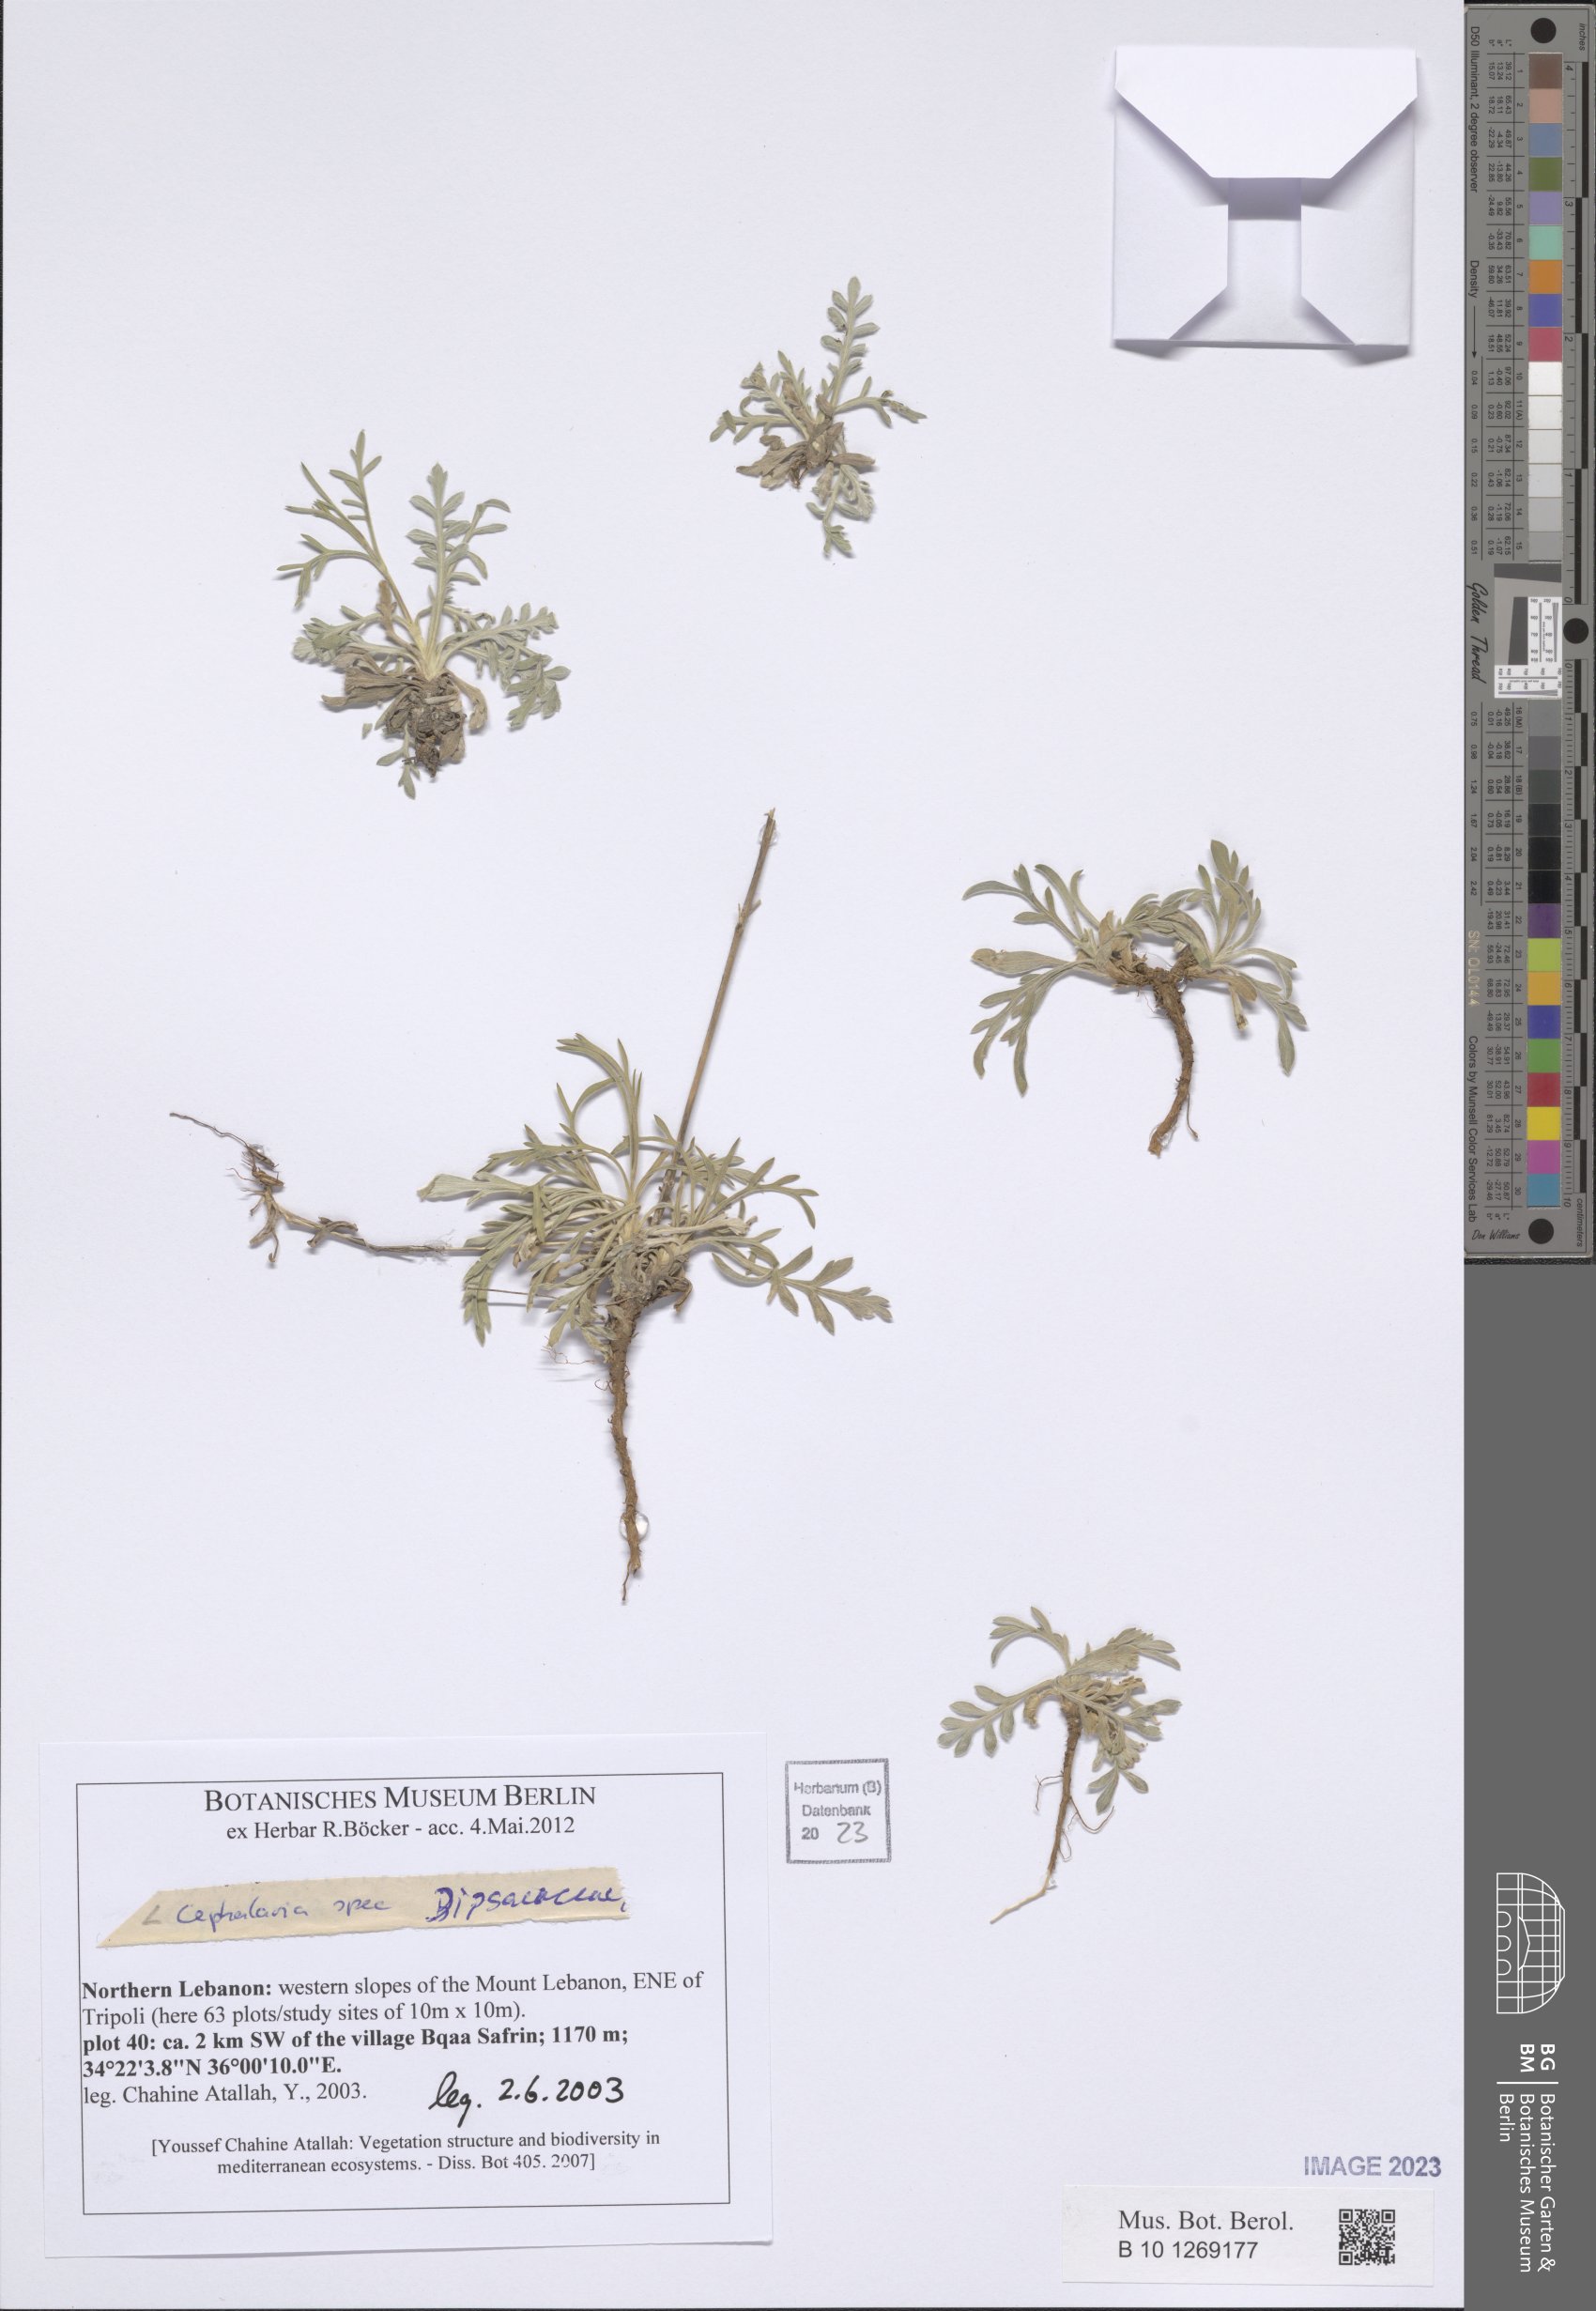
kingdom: Plantae
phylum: Tracheophyta
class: Magnoliopsida
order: Dipsacales
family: Dipsacaceae
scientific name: Dipsacaceae
